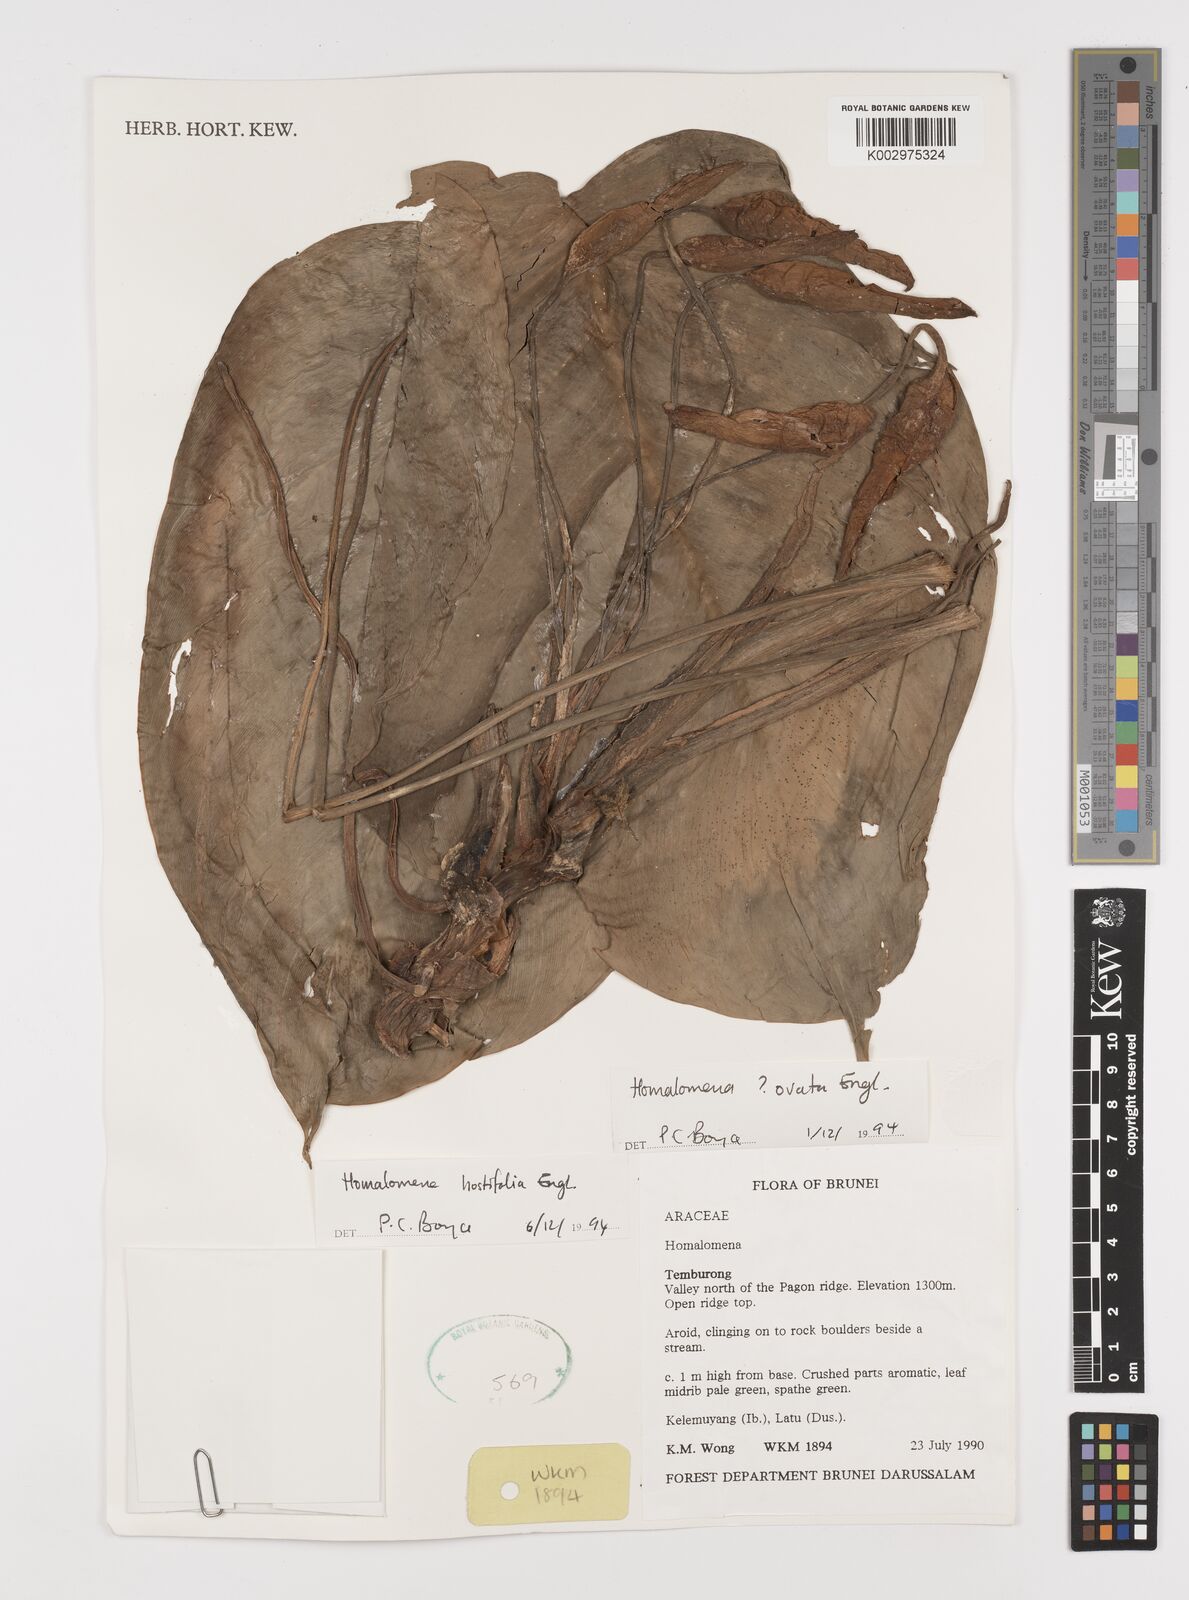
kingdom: Plantae
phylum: Tracheophyta
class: Liliopsida
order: Alismatales
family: Araceae
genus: Homalomena
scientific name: Homalomena ovata
